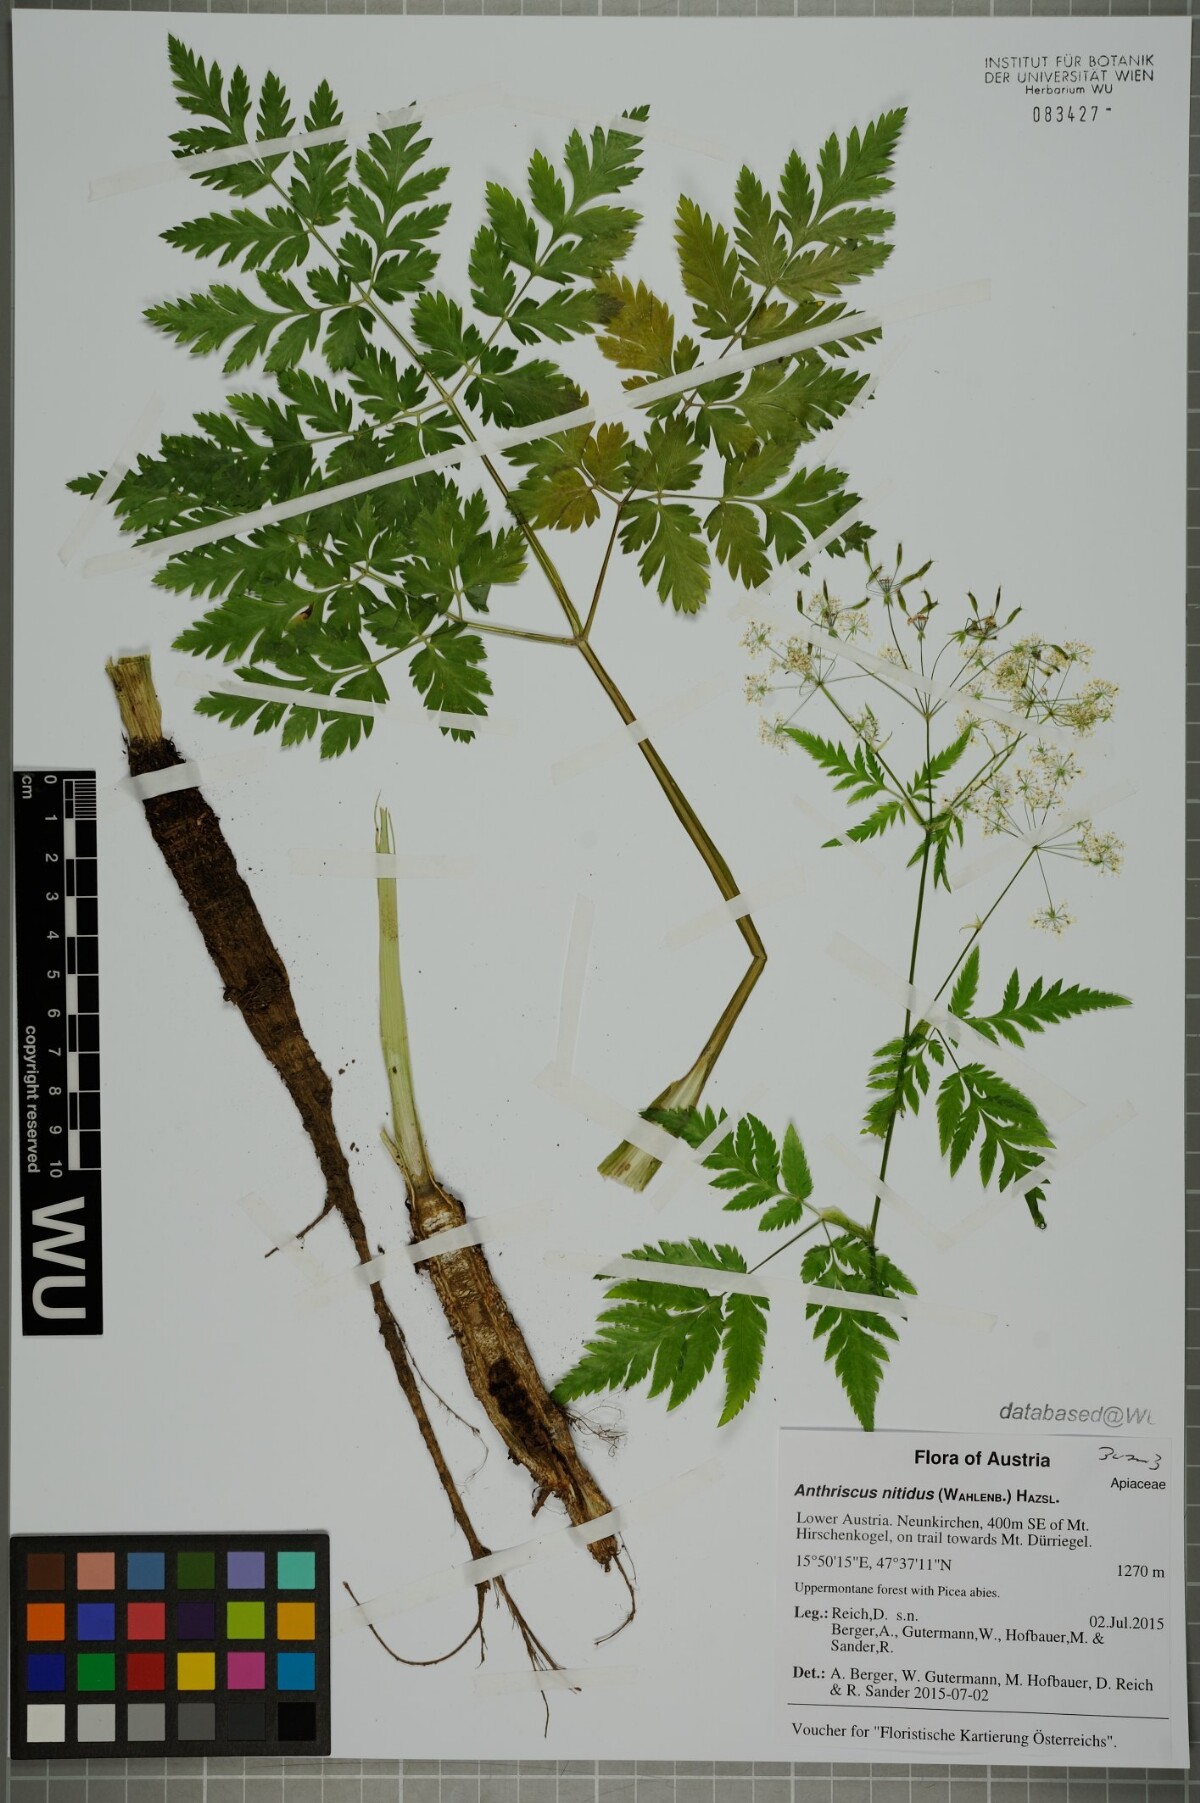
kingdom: Plantae
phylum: Tracheophyta
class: Magnoliopsida
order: Apiales
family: Apiaceae
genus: Anthriscus
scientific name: Anthriscus nitida
